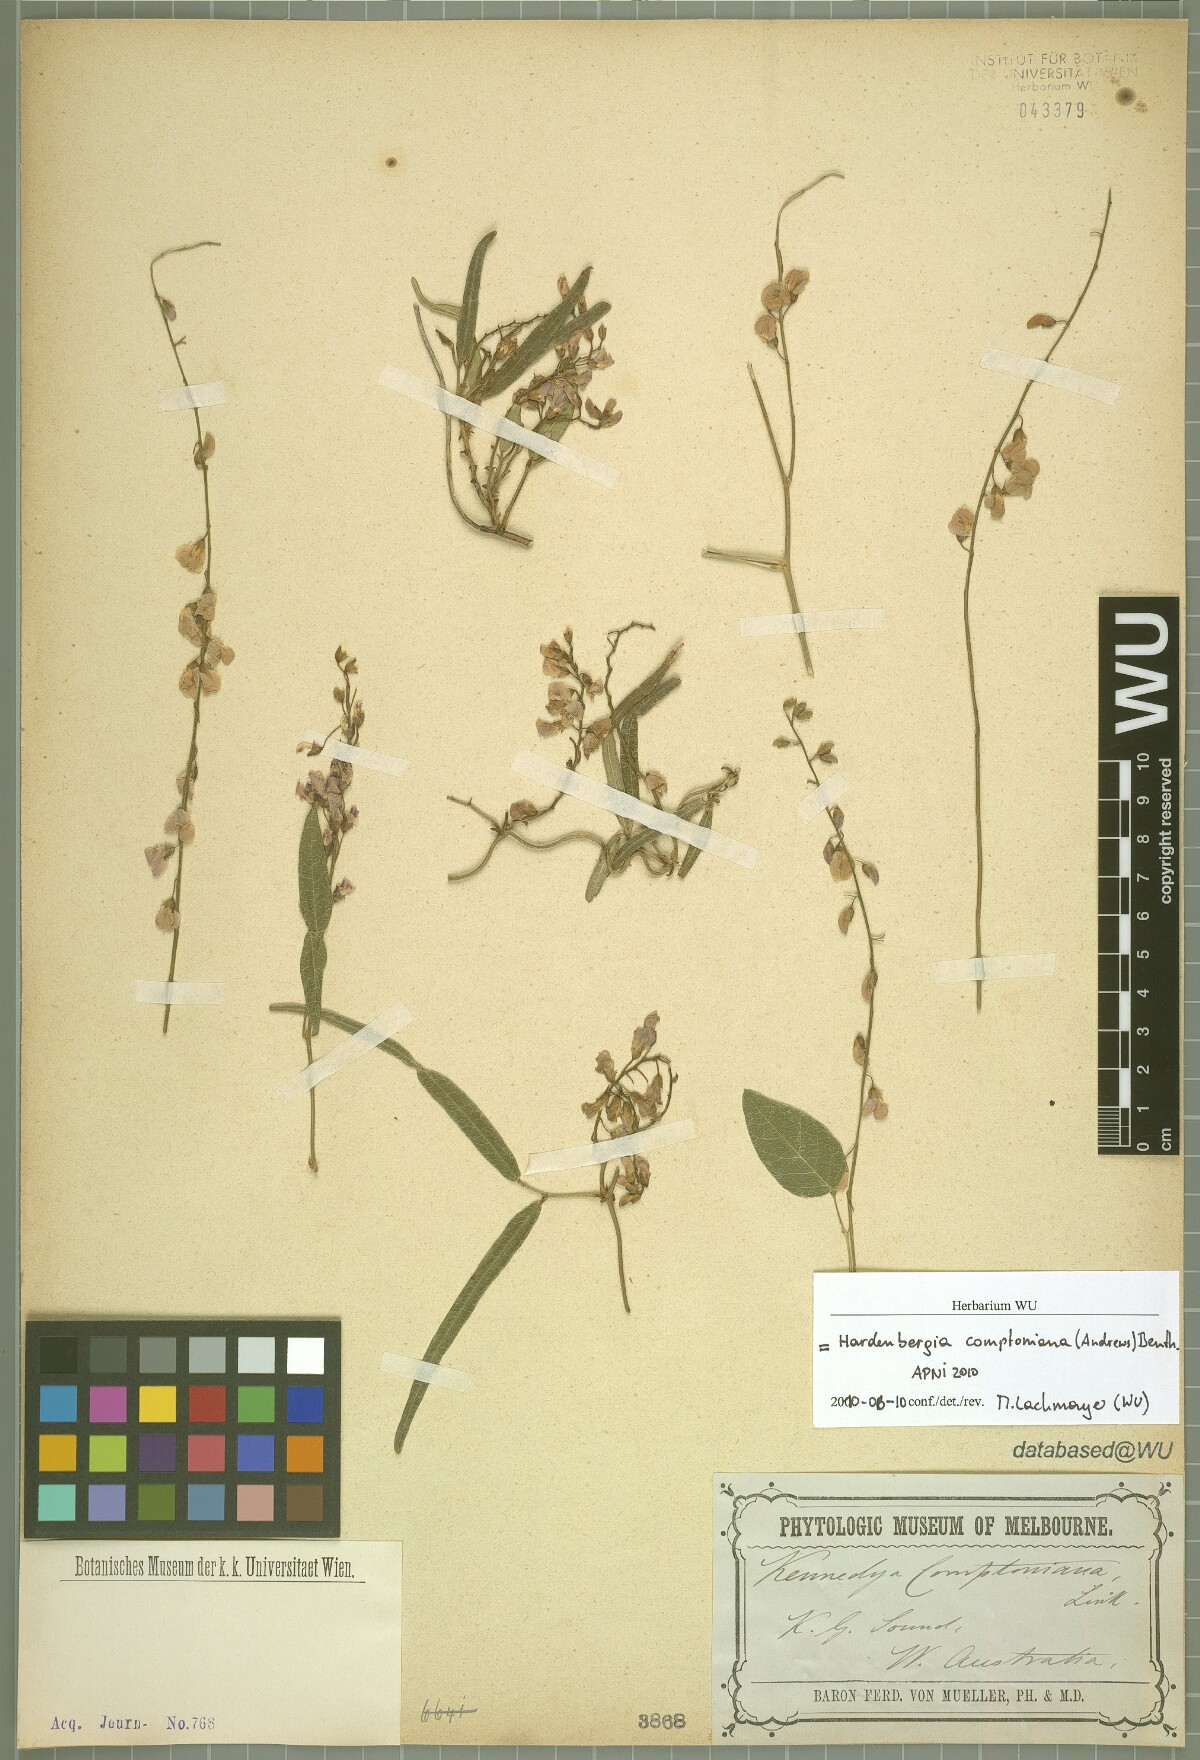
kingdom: Plantae
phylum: Tracheophyta
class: Magnoliopsida
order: Fabales
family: Fabaceae
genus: Hardenbergia
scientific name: Hardenbergia comptoniana
